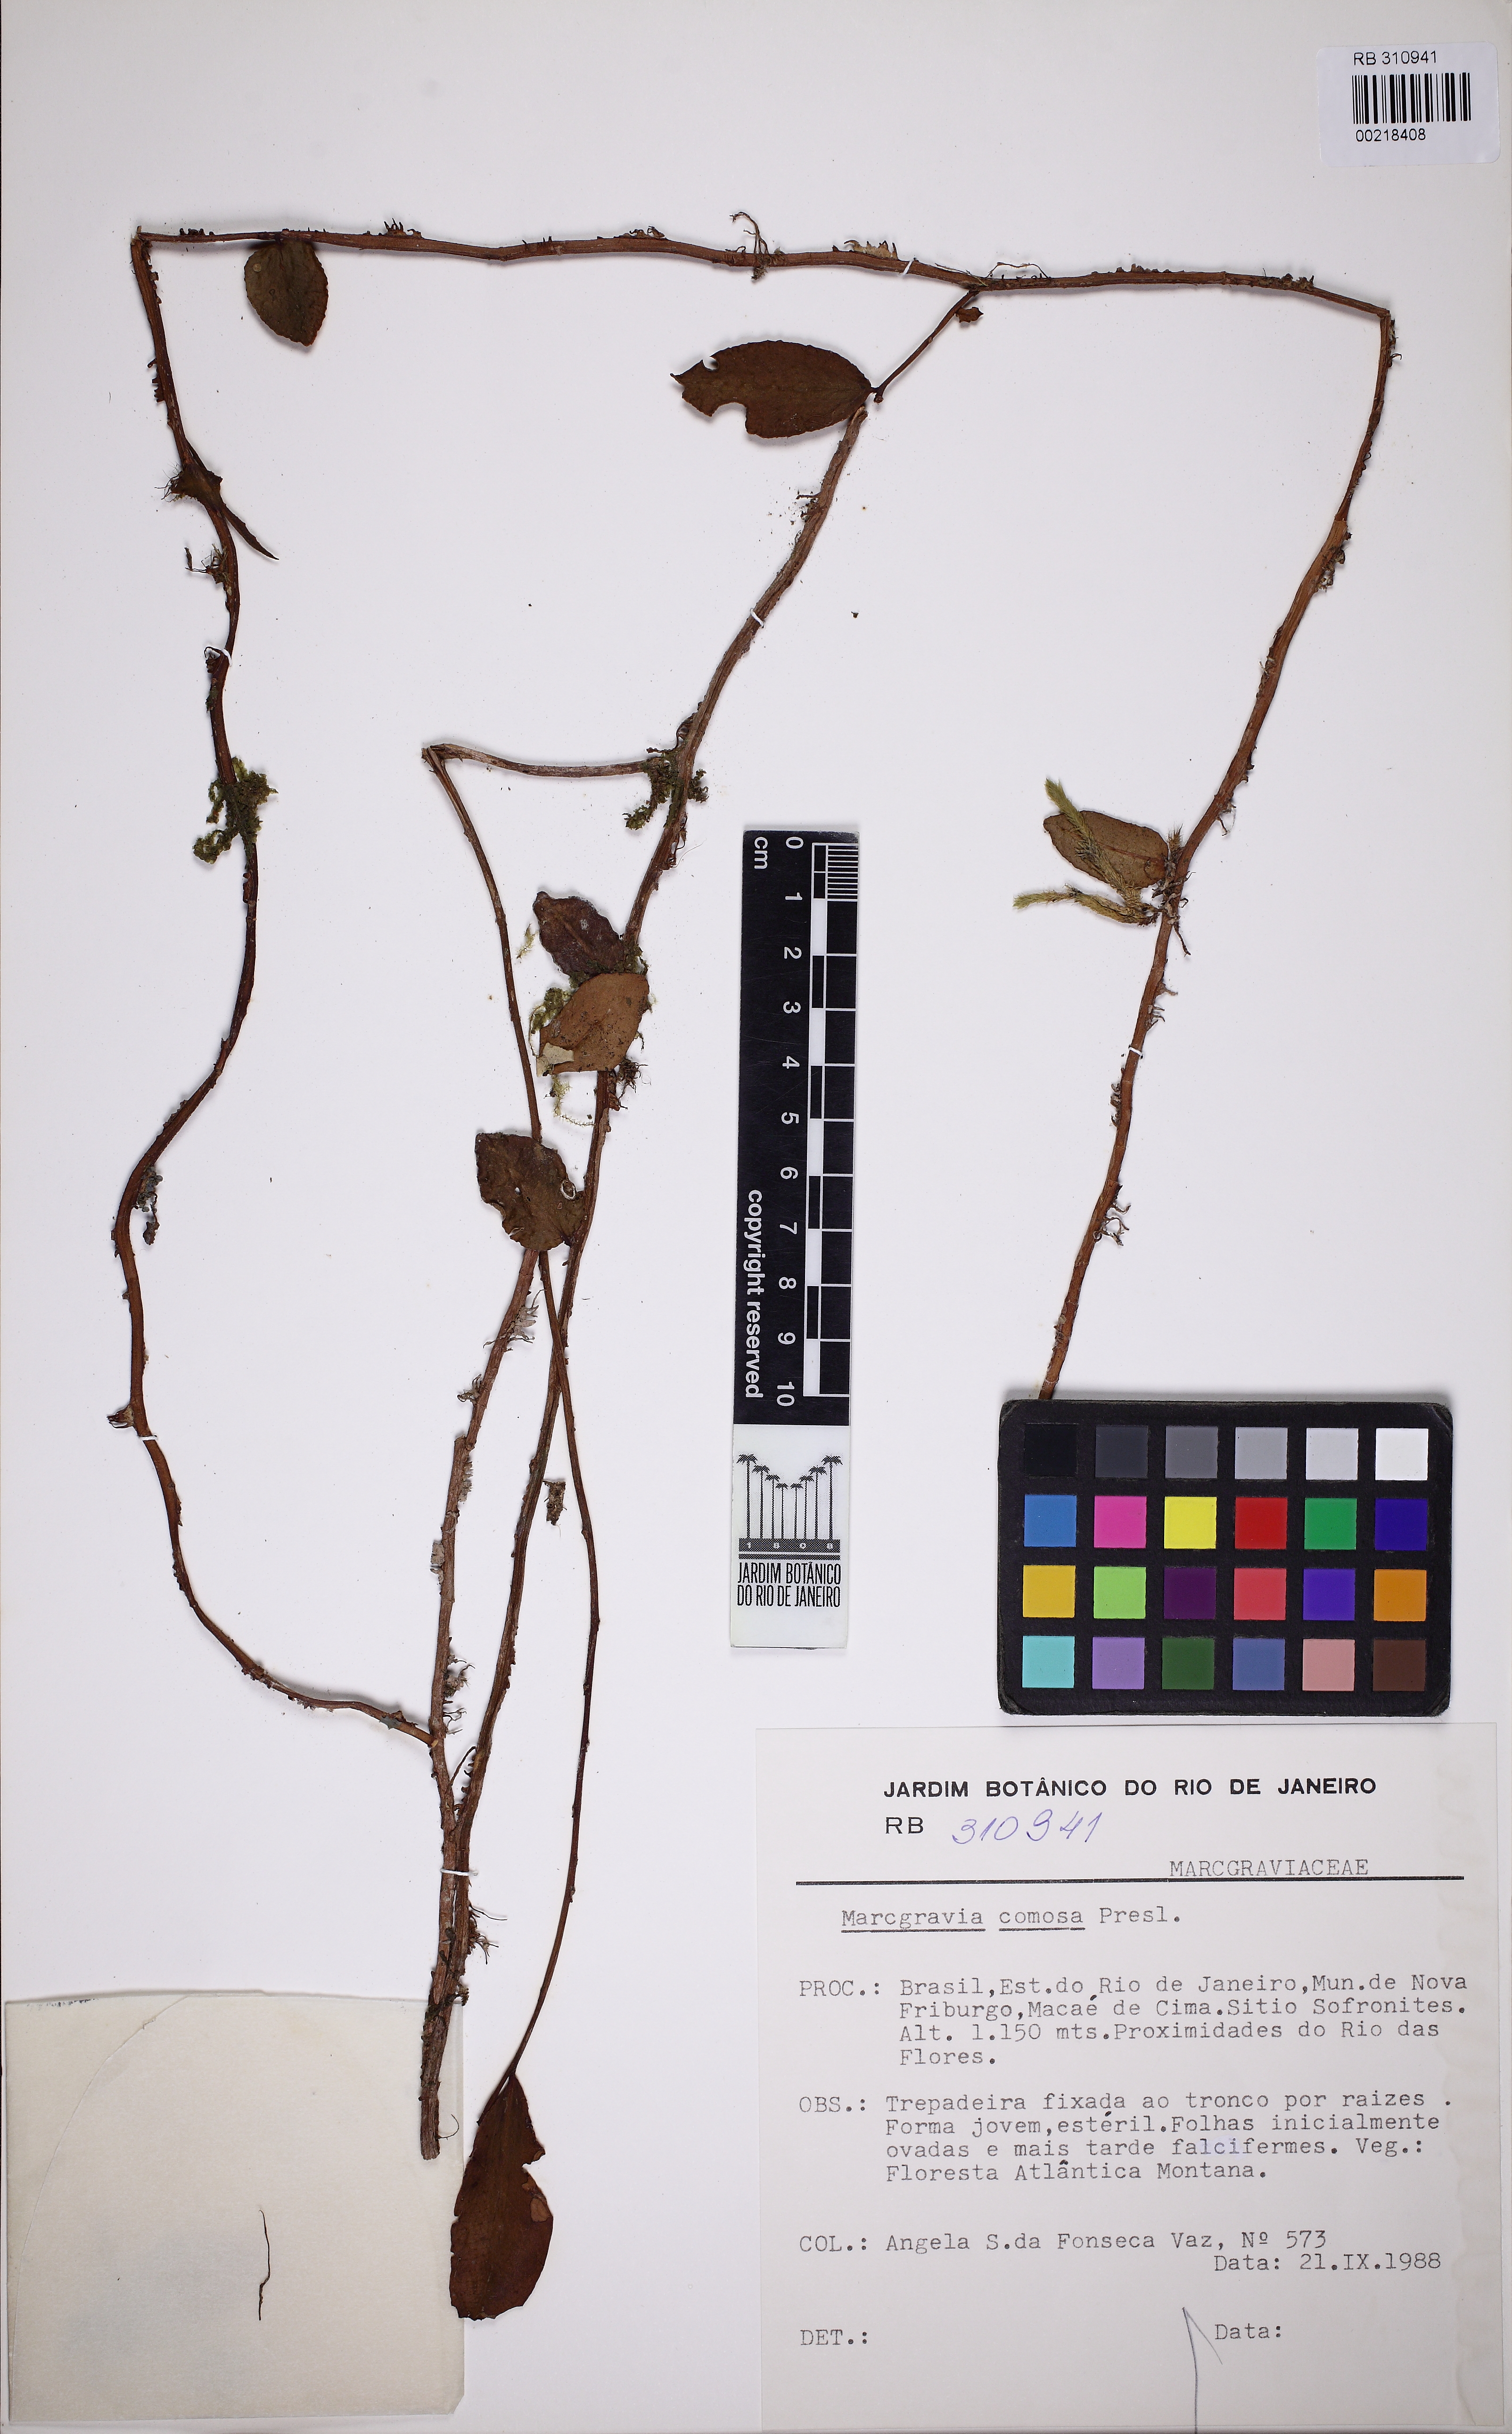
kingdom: Plantae
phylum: Tracheophyta
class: Magnoliopsida
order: Ericales
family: Marcgraviaceae
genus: Marcgravia
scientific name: Marcgravia comosa
